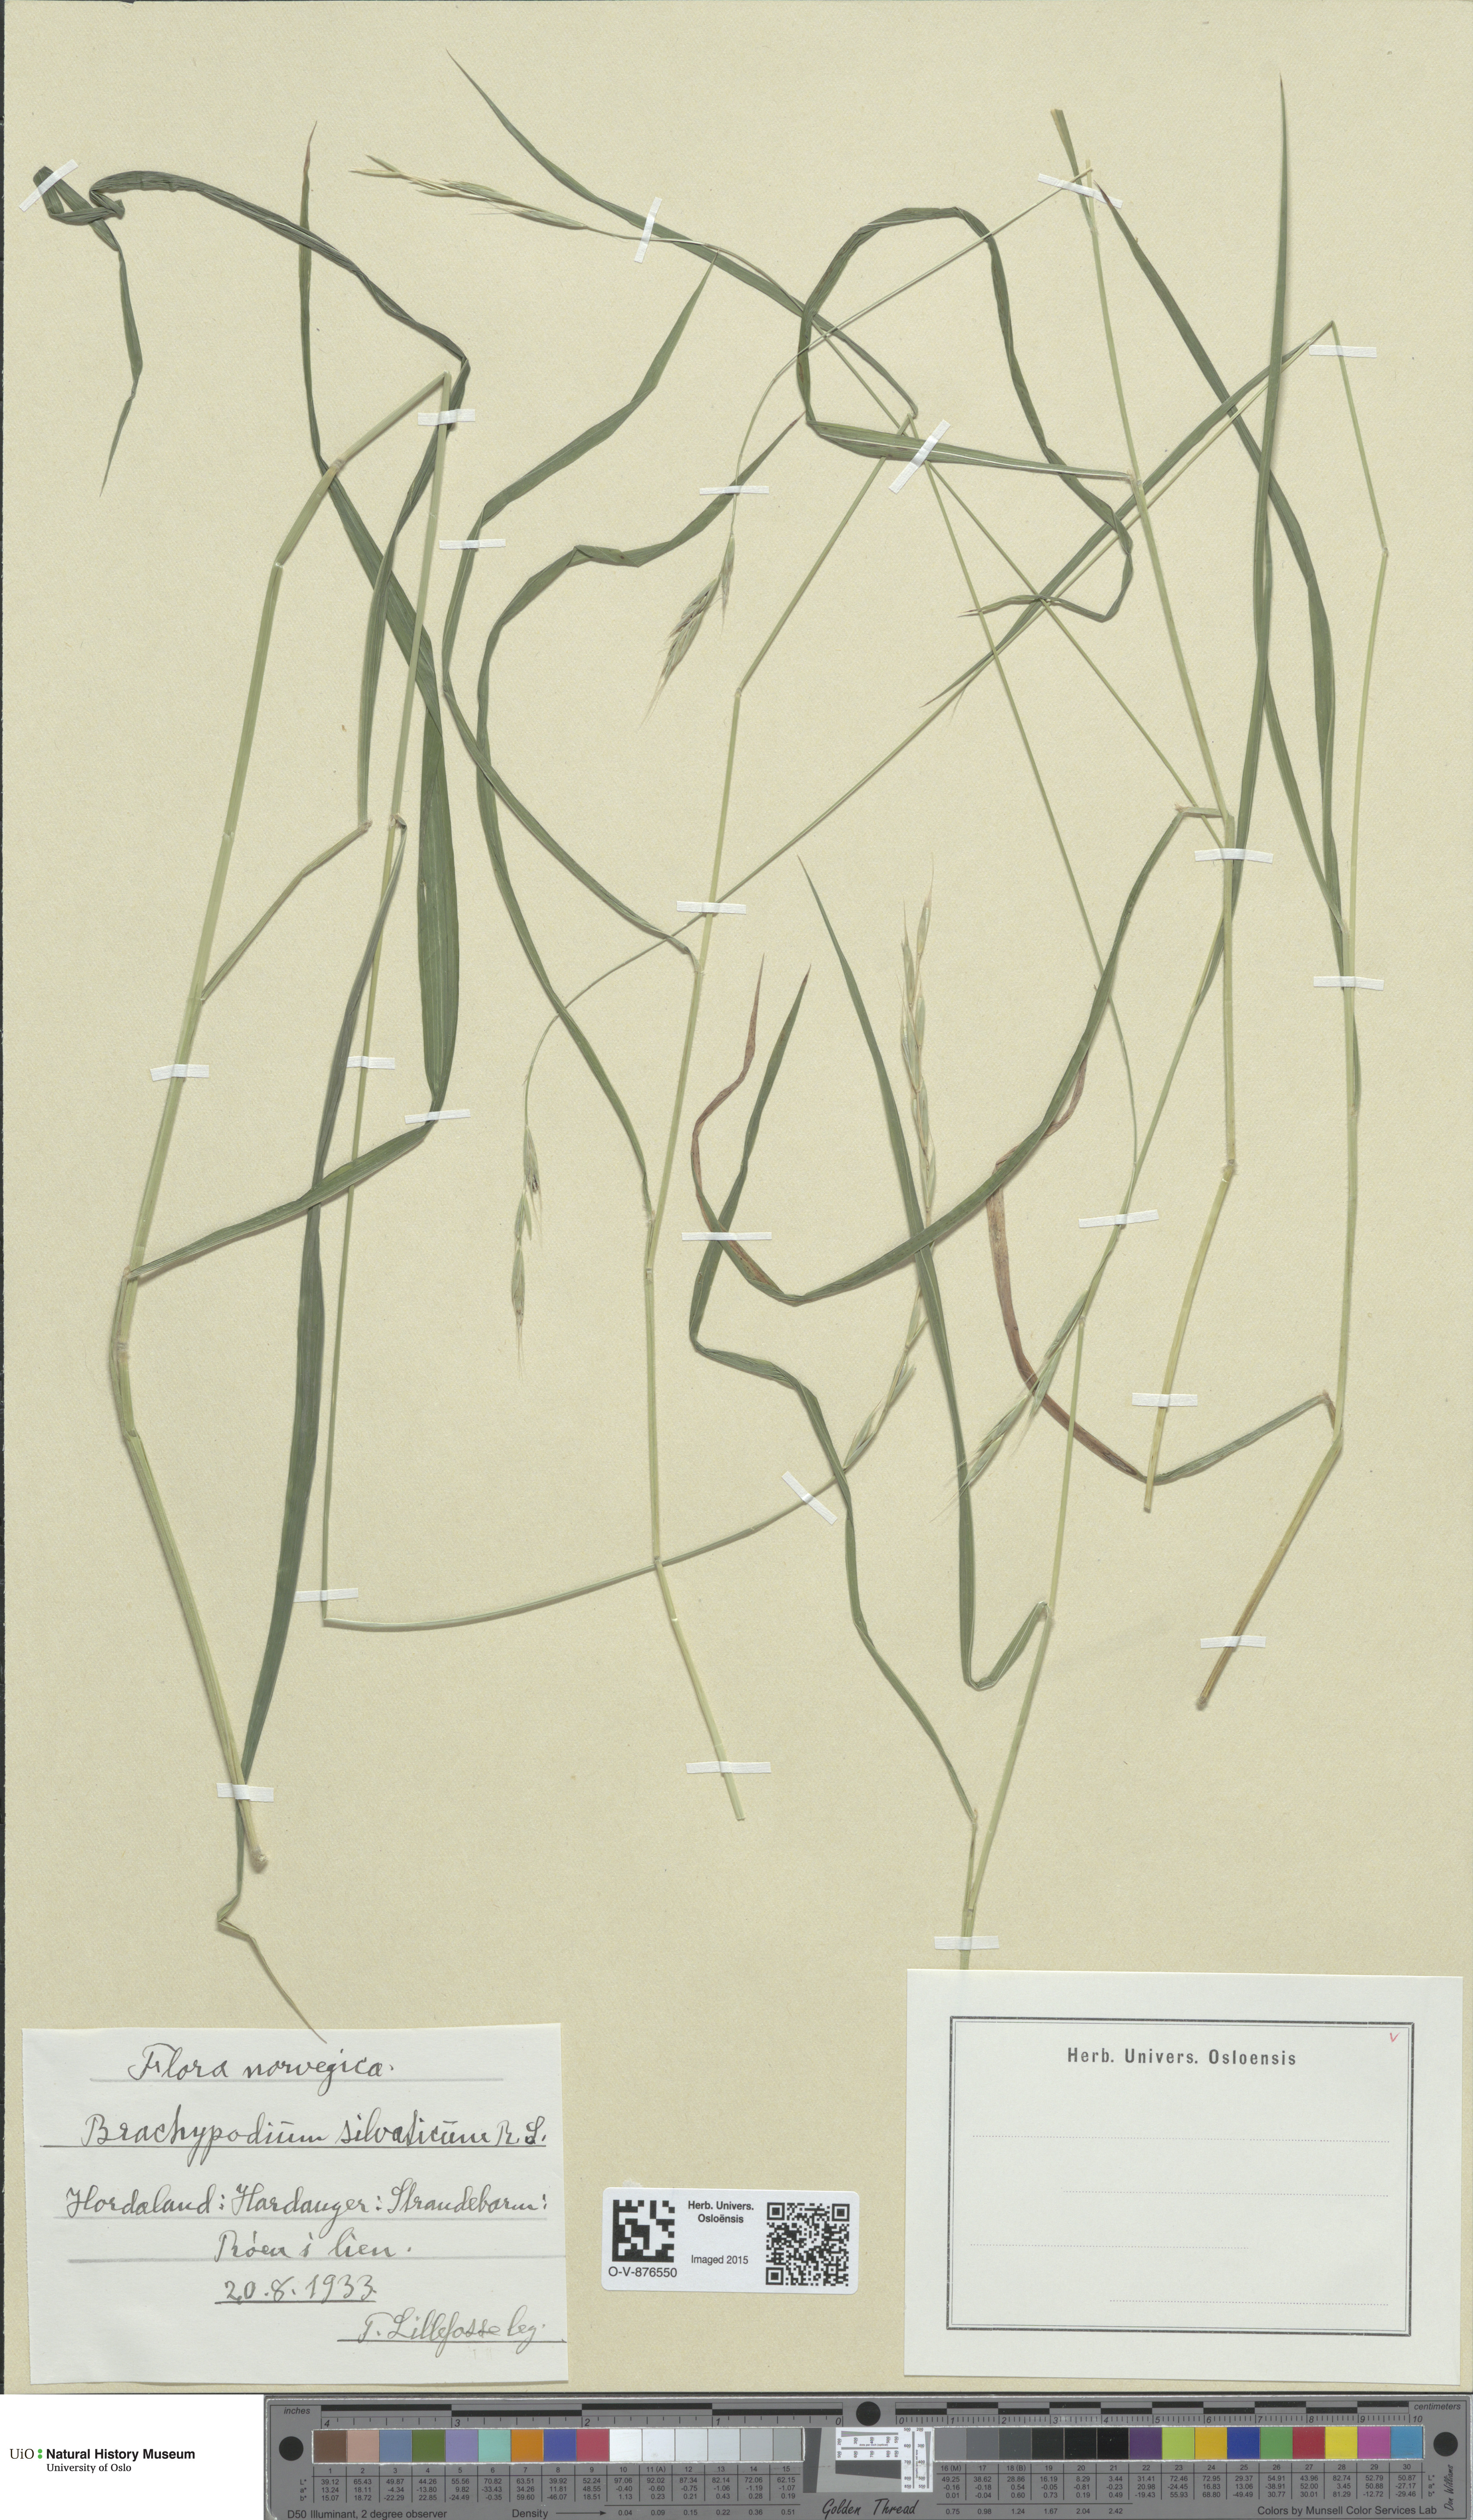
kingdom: Plantae
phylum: Tracheophyta
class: Liliopsida
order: Poales
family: Poaceae
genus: Brachypodium
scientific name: Brachypodium sylvaticum
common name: False-brome
